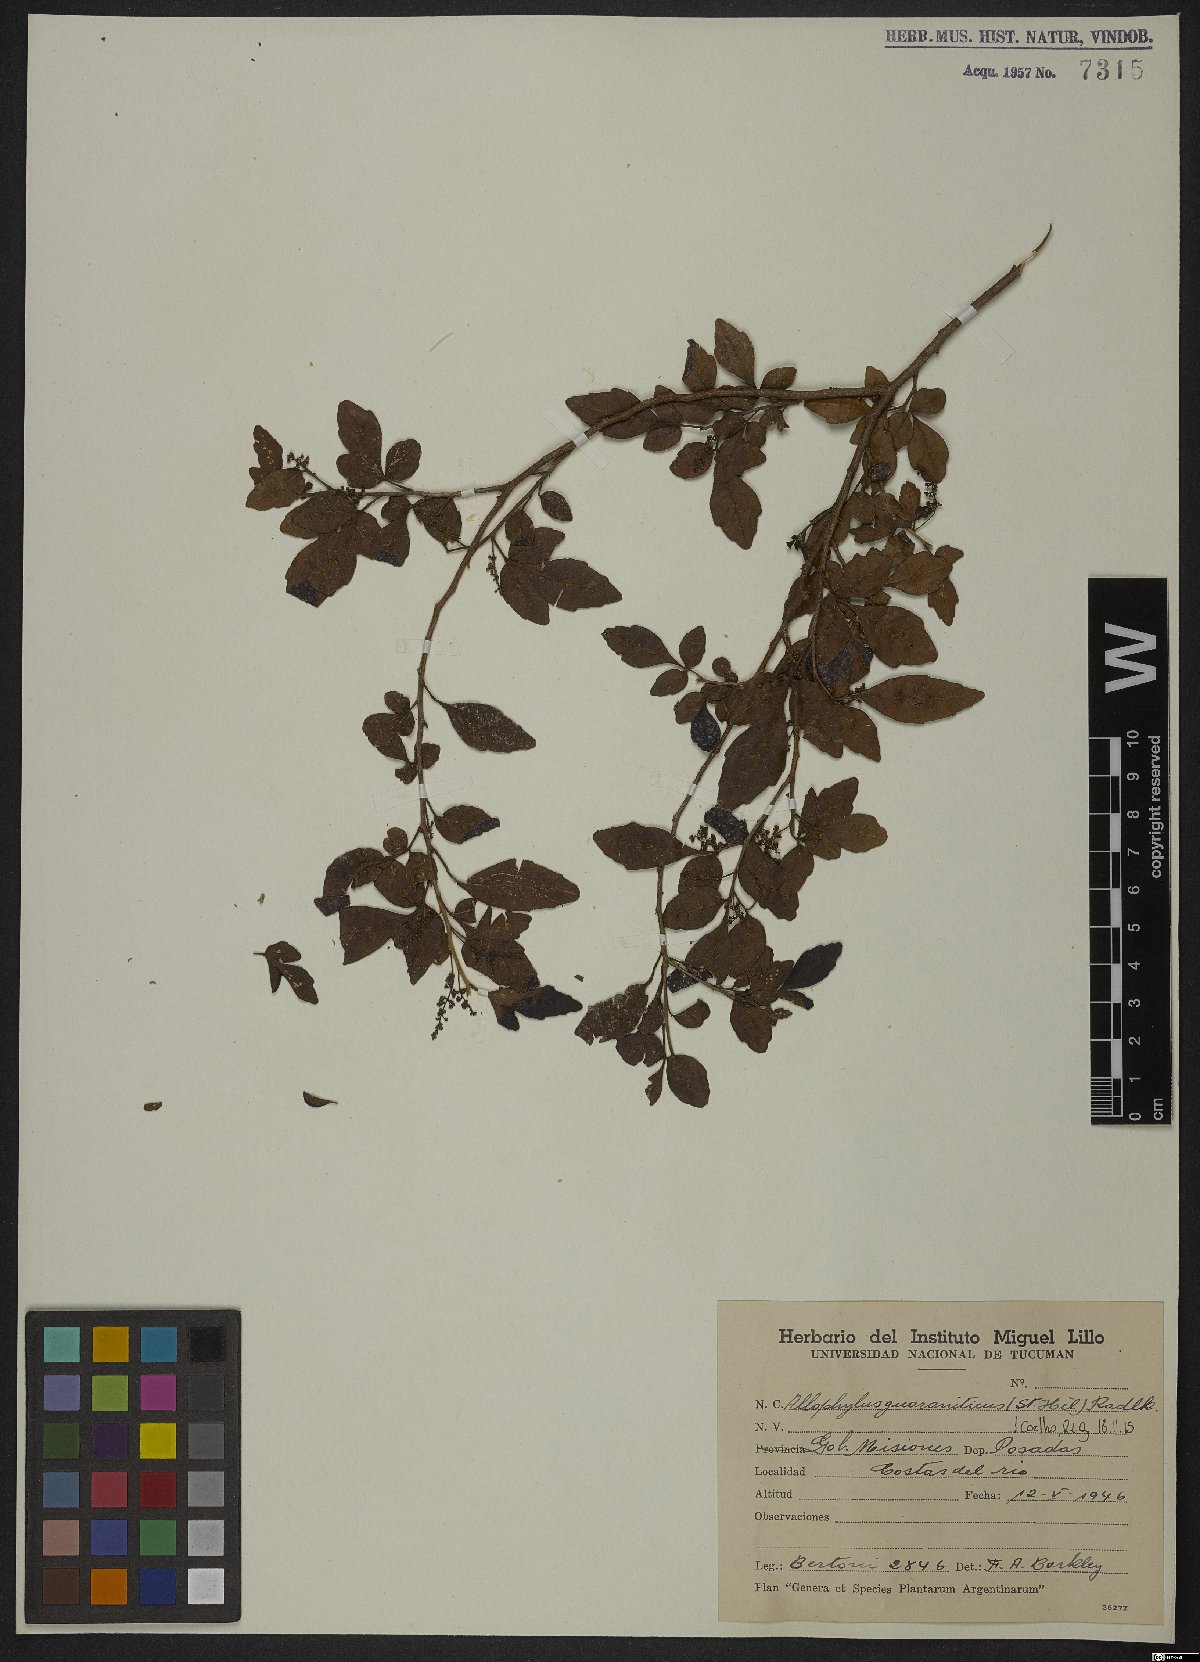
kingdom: Plantae
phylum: Tracheophyta
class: Magnoliopsida
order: Sapindales
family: Sapindaceae
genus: Allophylus
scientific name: Allophylus guaraniticus
